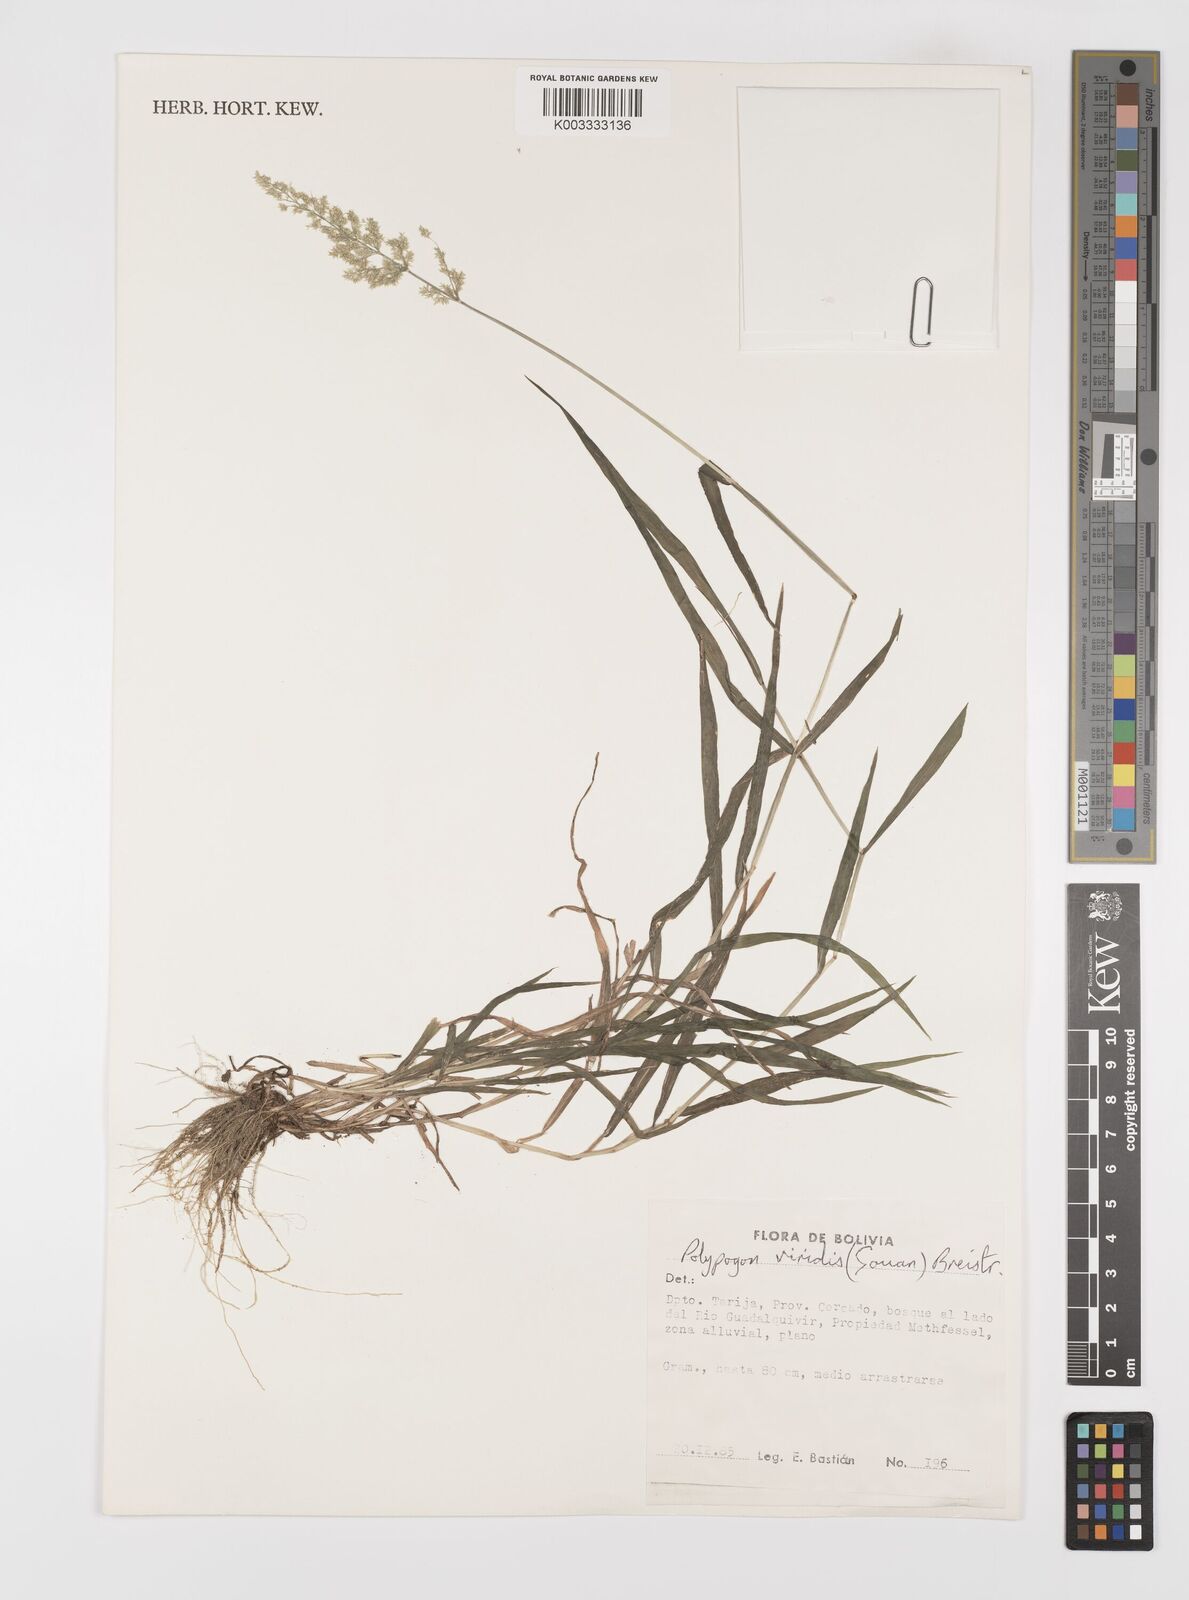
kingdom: Plantae
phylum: Tracheophyta
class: Liliopsida
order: Poales
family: Poaceae
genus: Polypogon
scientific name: Polypogon viridis
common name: Water bent
